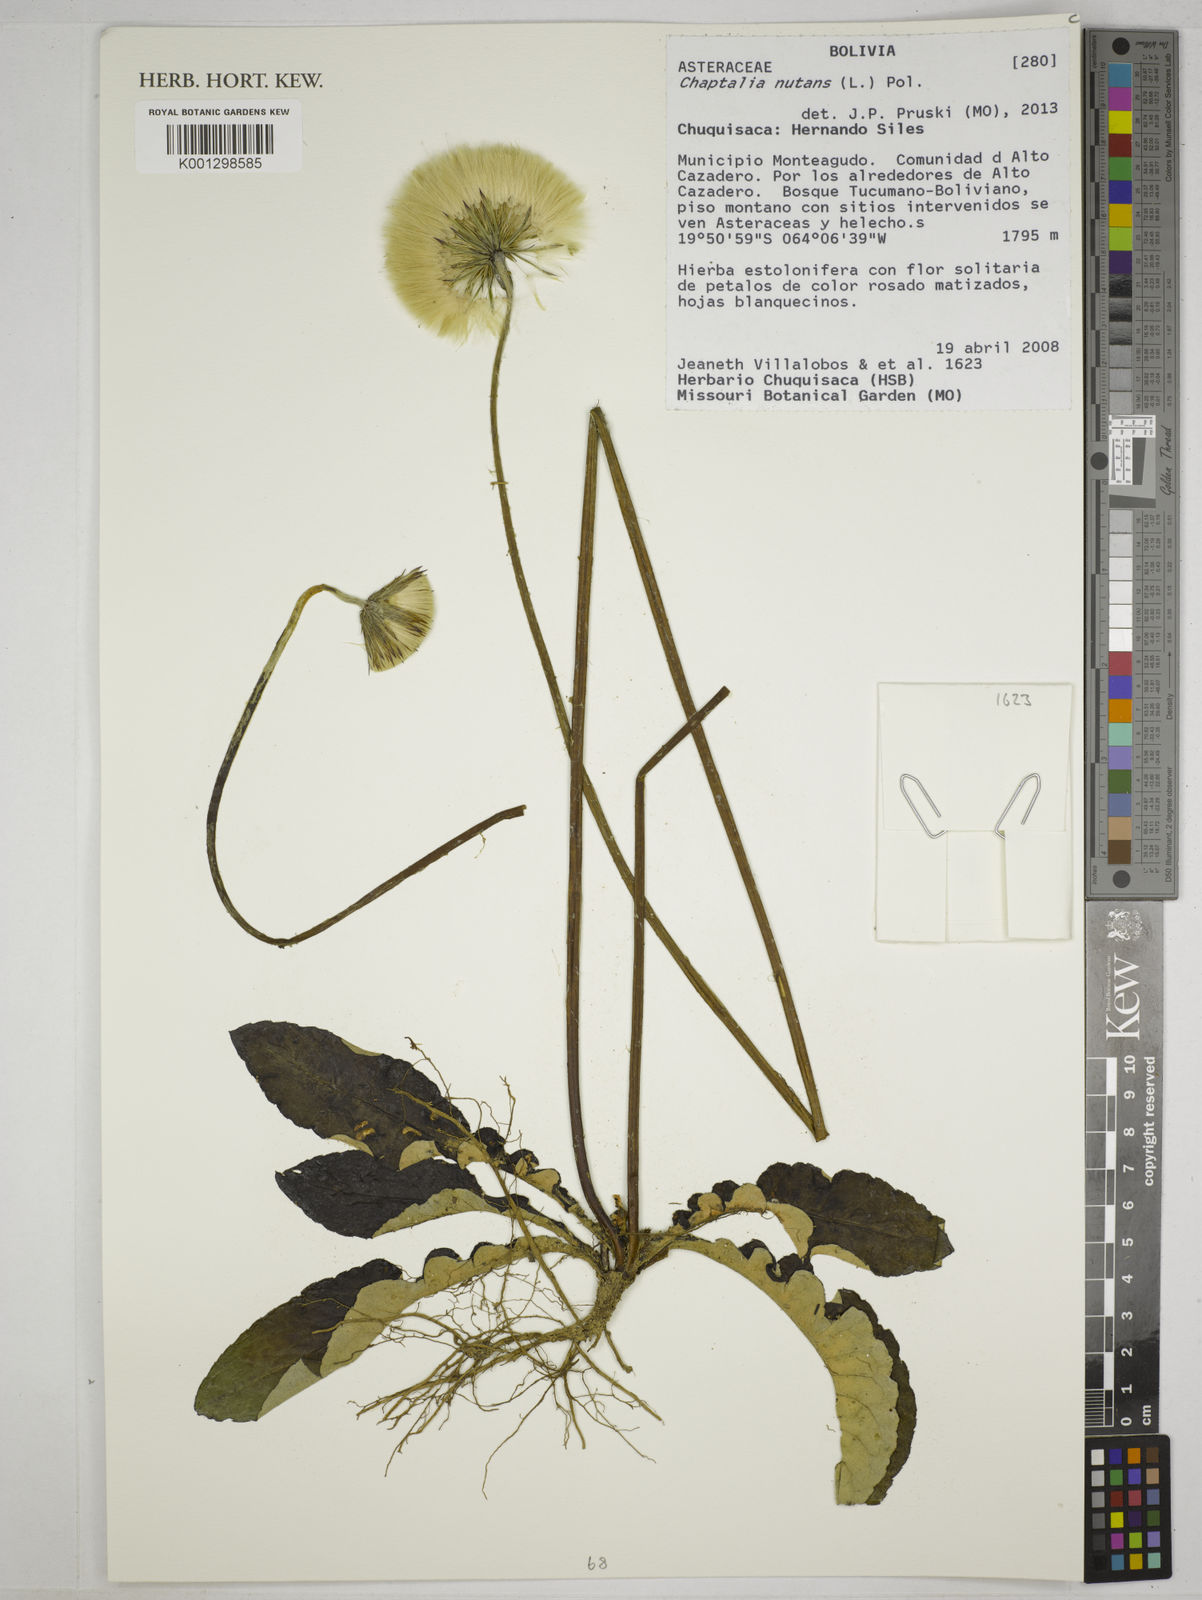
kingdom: Plantae
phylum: Tracheophyta
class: Magnoliopsida
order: Asterales
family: Asteraceae
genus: Chaptalia
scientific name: Chaptalia nutans
